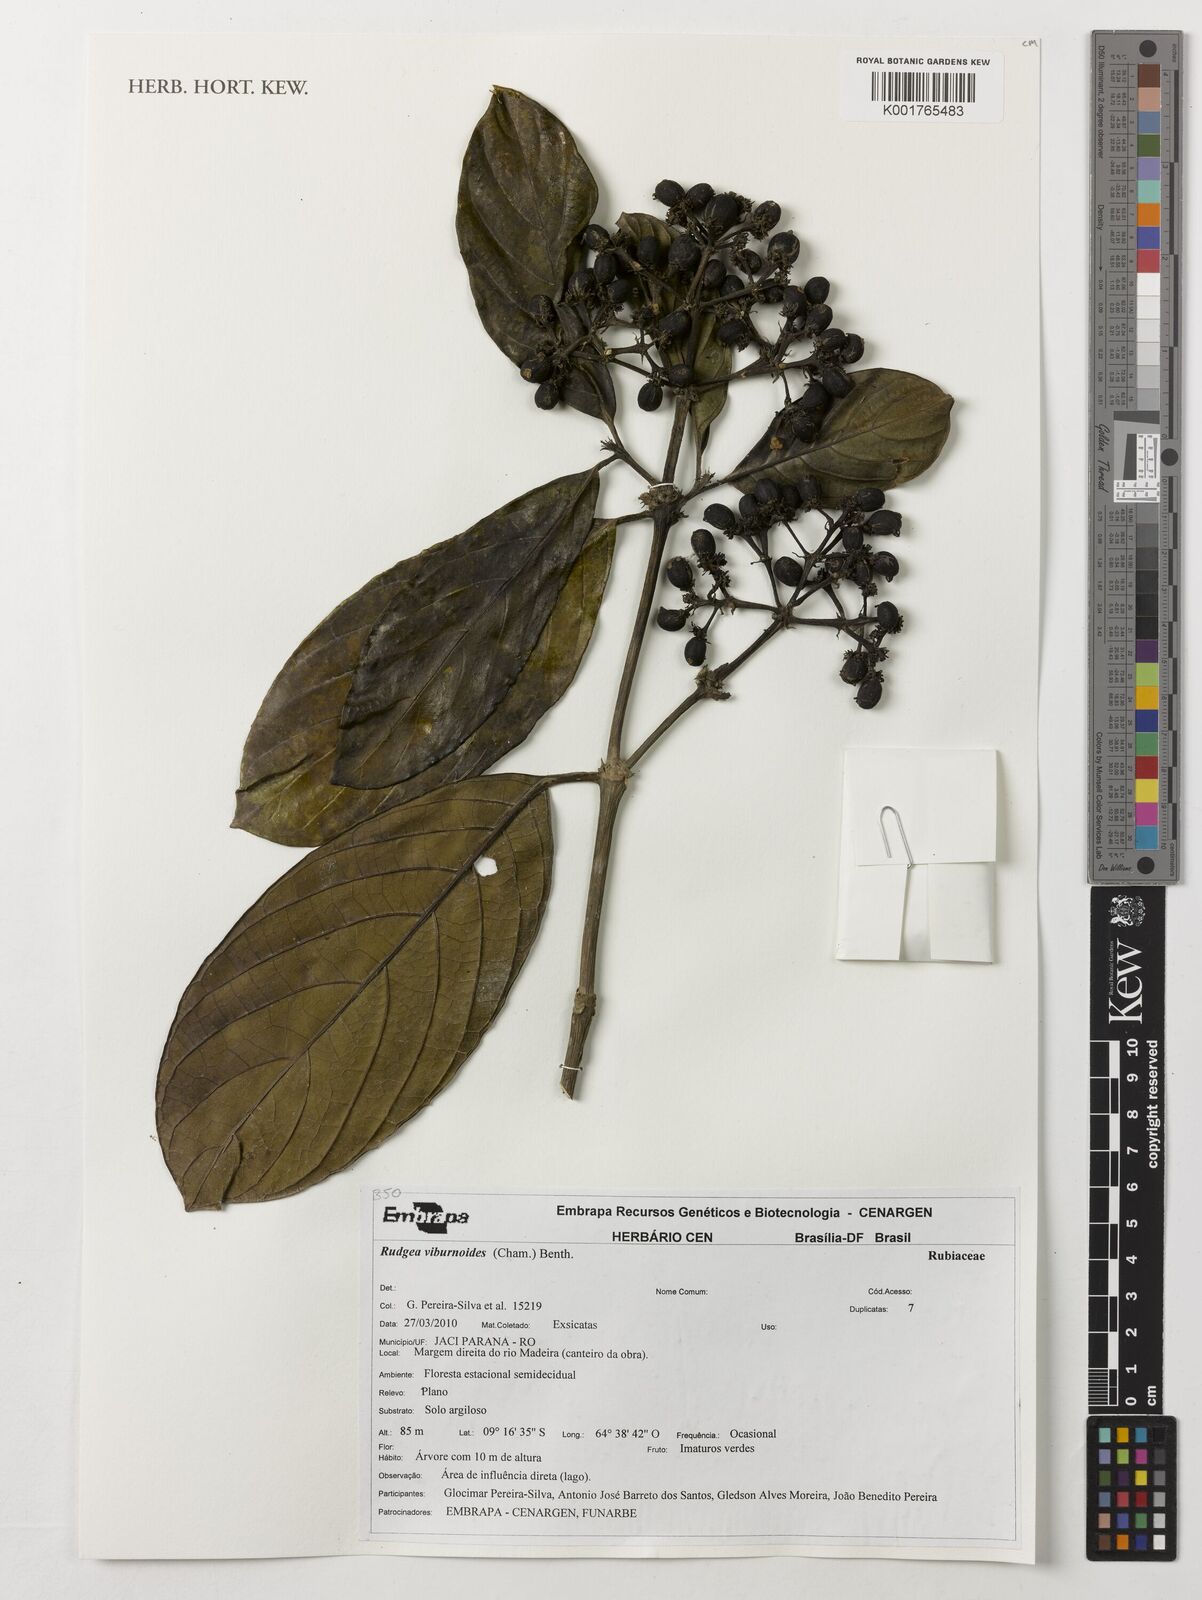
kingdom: Plantae
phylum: Tracheophyta
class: Magnoliopsida
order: Gentianales
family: Rubiaceae
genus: Rudgea
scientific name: Rudgea viburnoides
